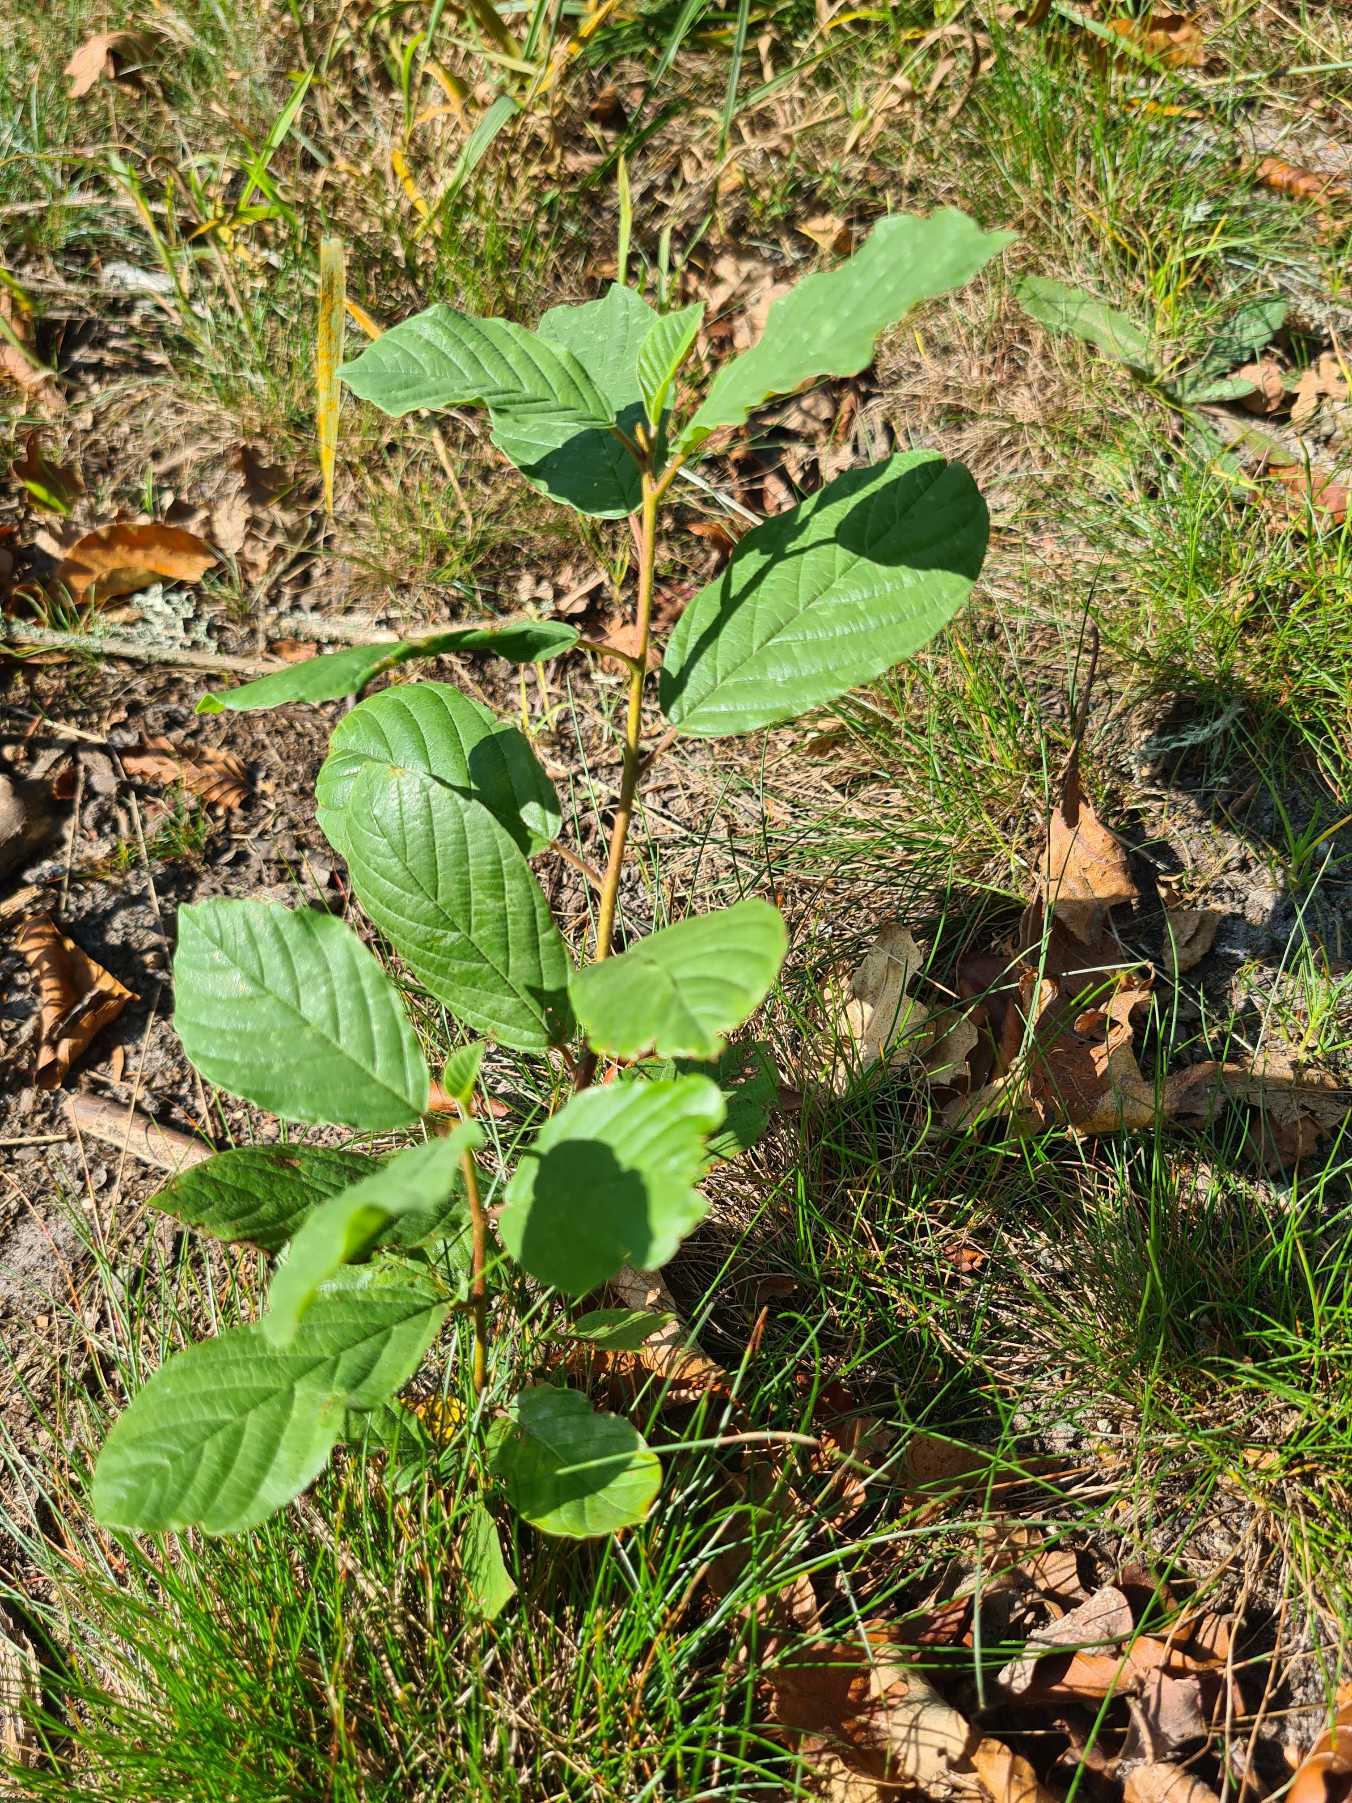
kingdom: Plantae
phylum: Tracheophyta
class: Magnoliopsida
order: Rosales
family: Rhamnaceae
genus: Frangula
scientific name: Frangula alnus
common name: Tørst
